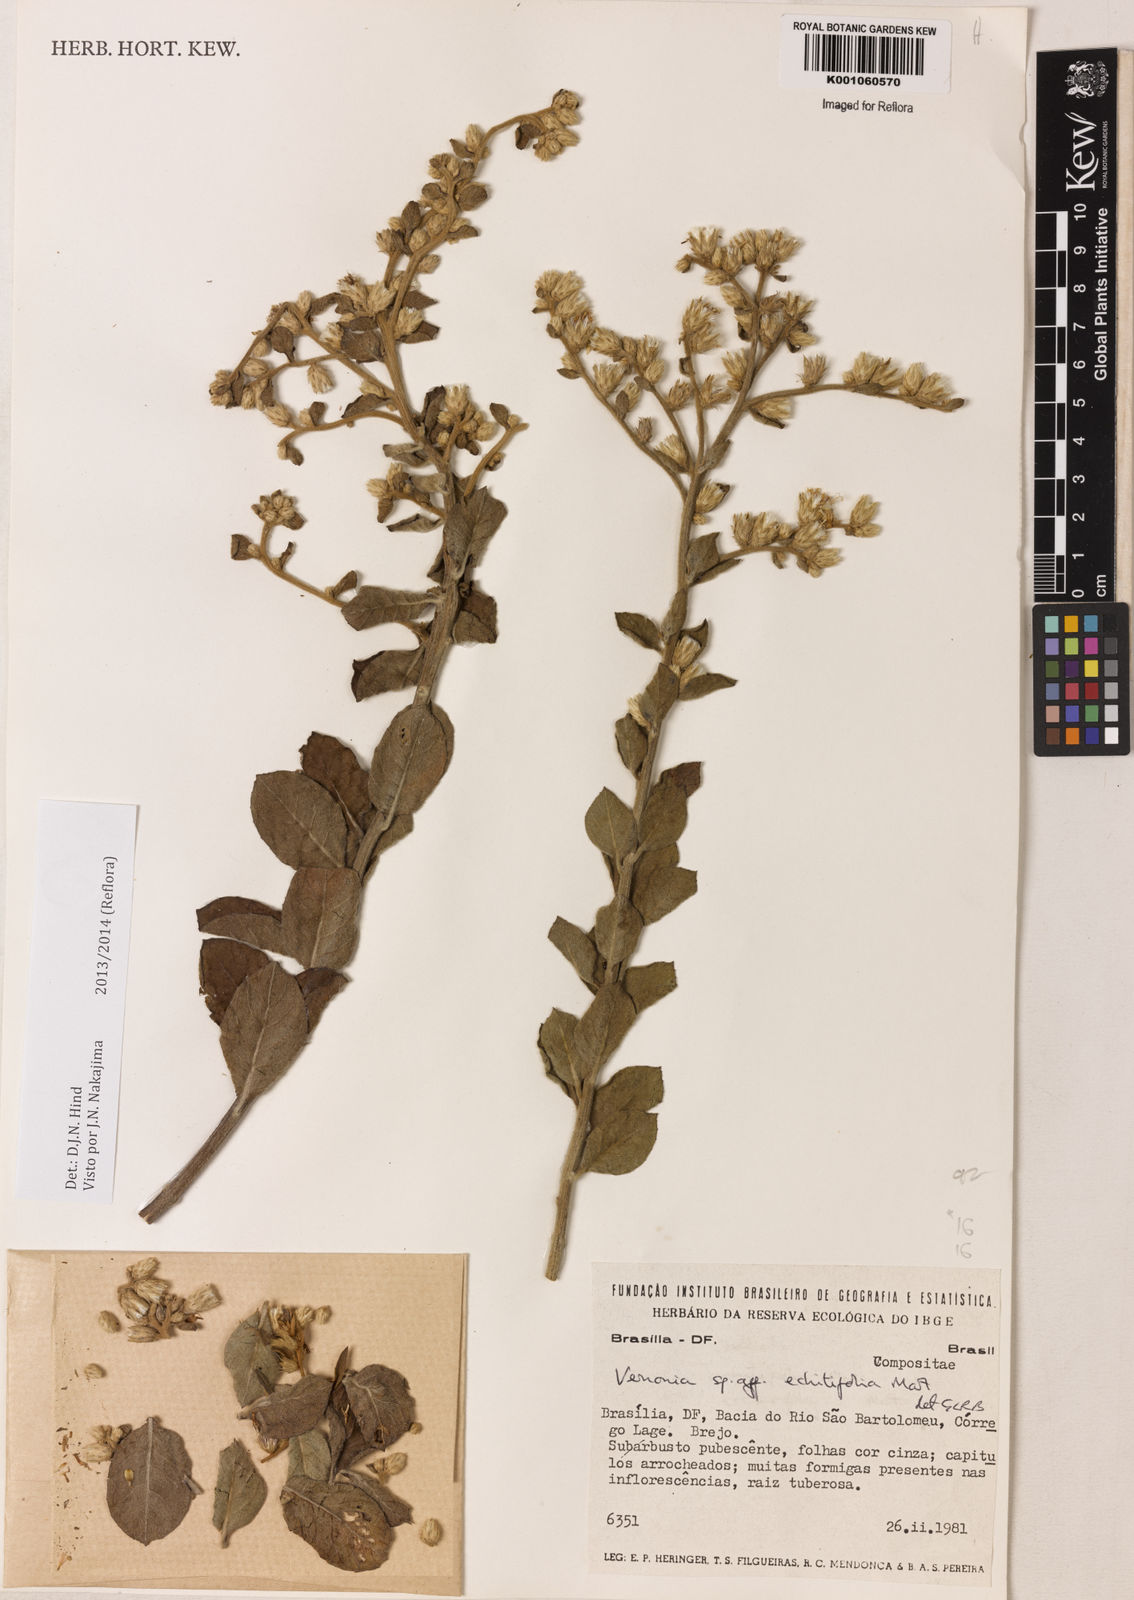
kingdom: Plantae
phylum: Tracheophyta
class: Magnoliopsida
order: Asterales
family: Asteraceae
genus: Acilepidopsis
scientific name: Acilepidopsis echitifolia
